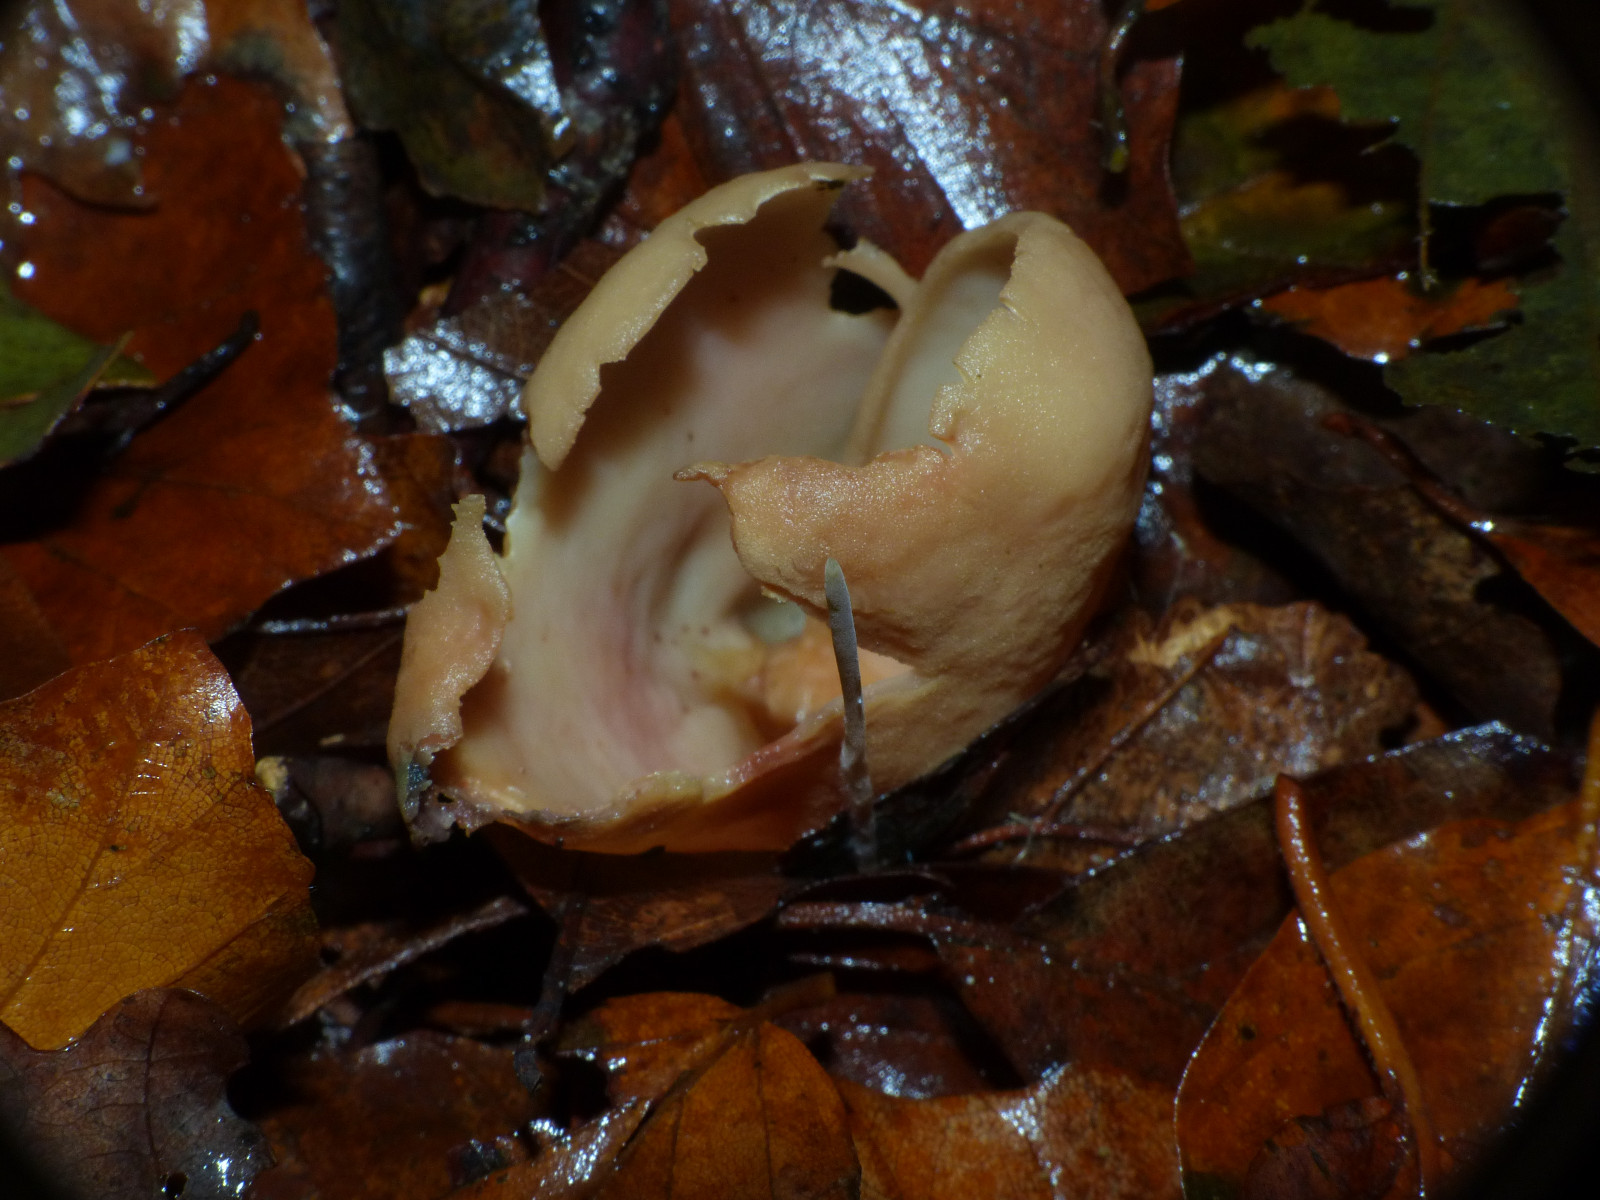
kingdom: Fungi
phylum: Ascomycota
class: Pezizomycetes
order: Pezizales
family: Otideaceae
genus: Otidea
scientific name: Otidea onotica
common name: æsel-ørebæger
